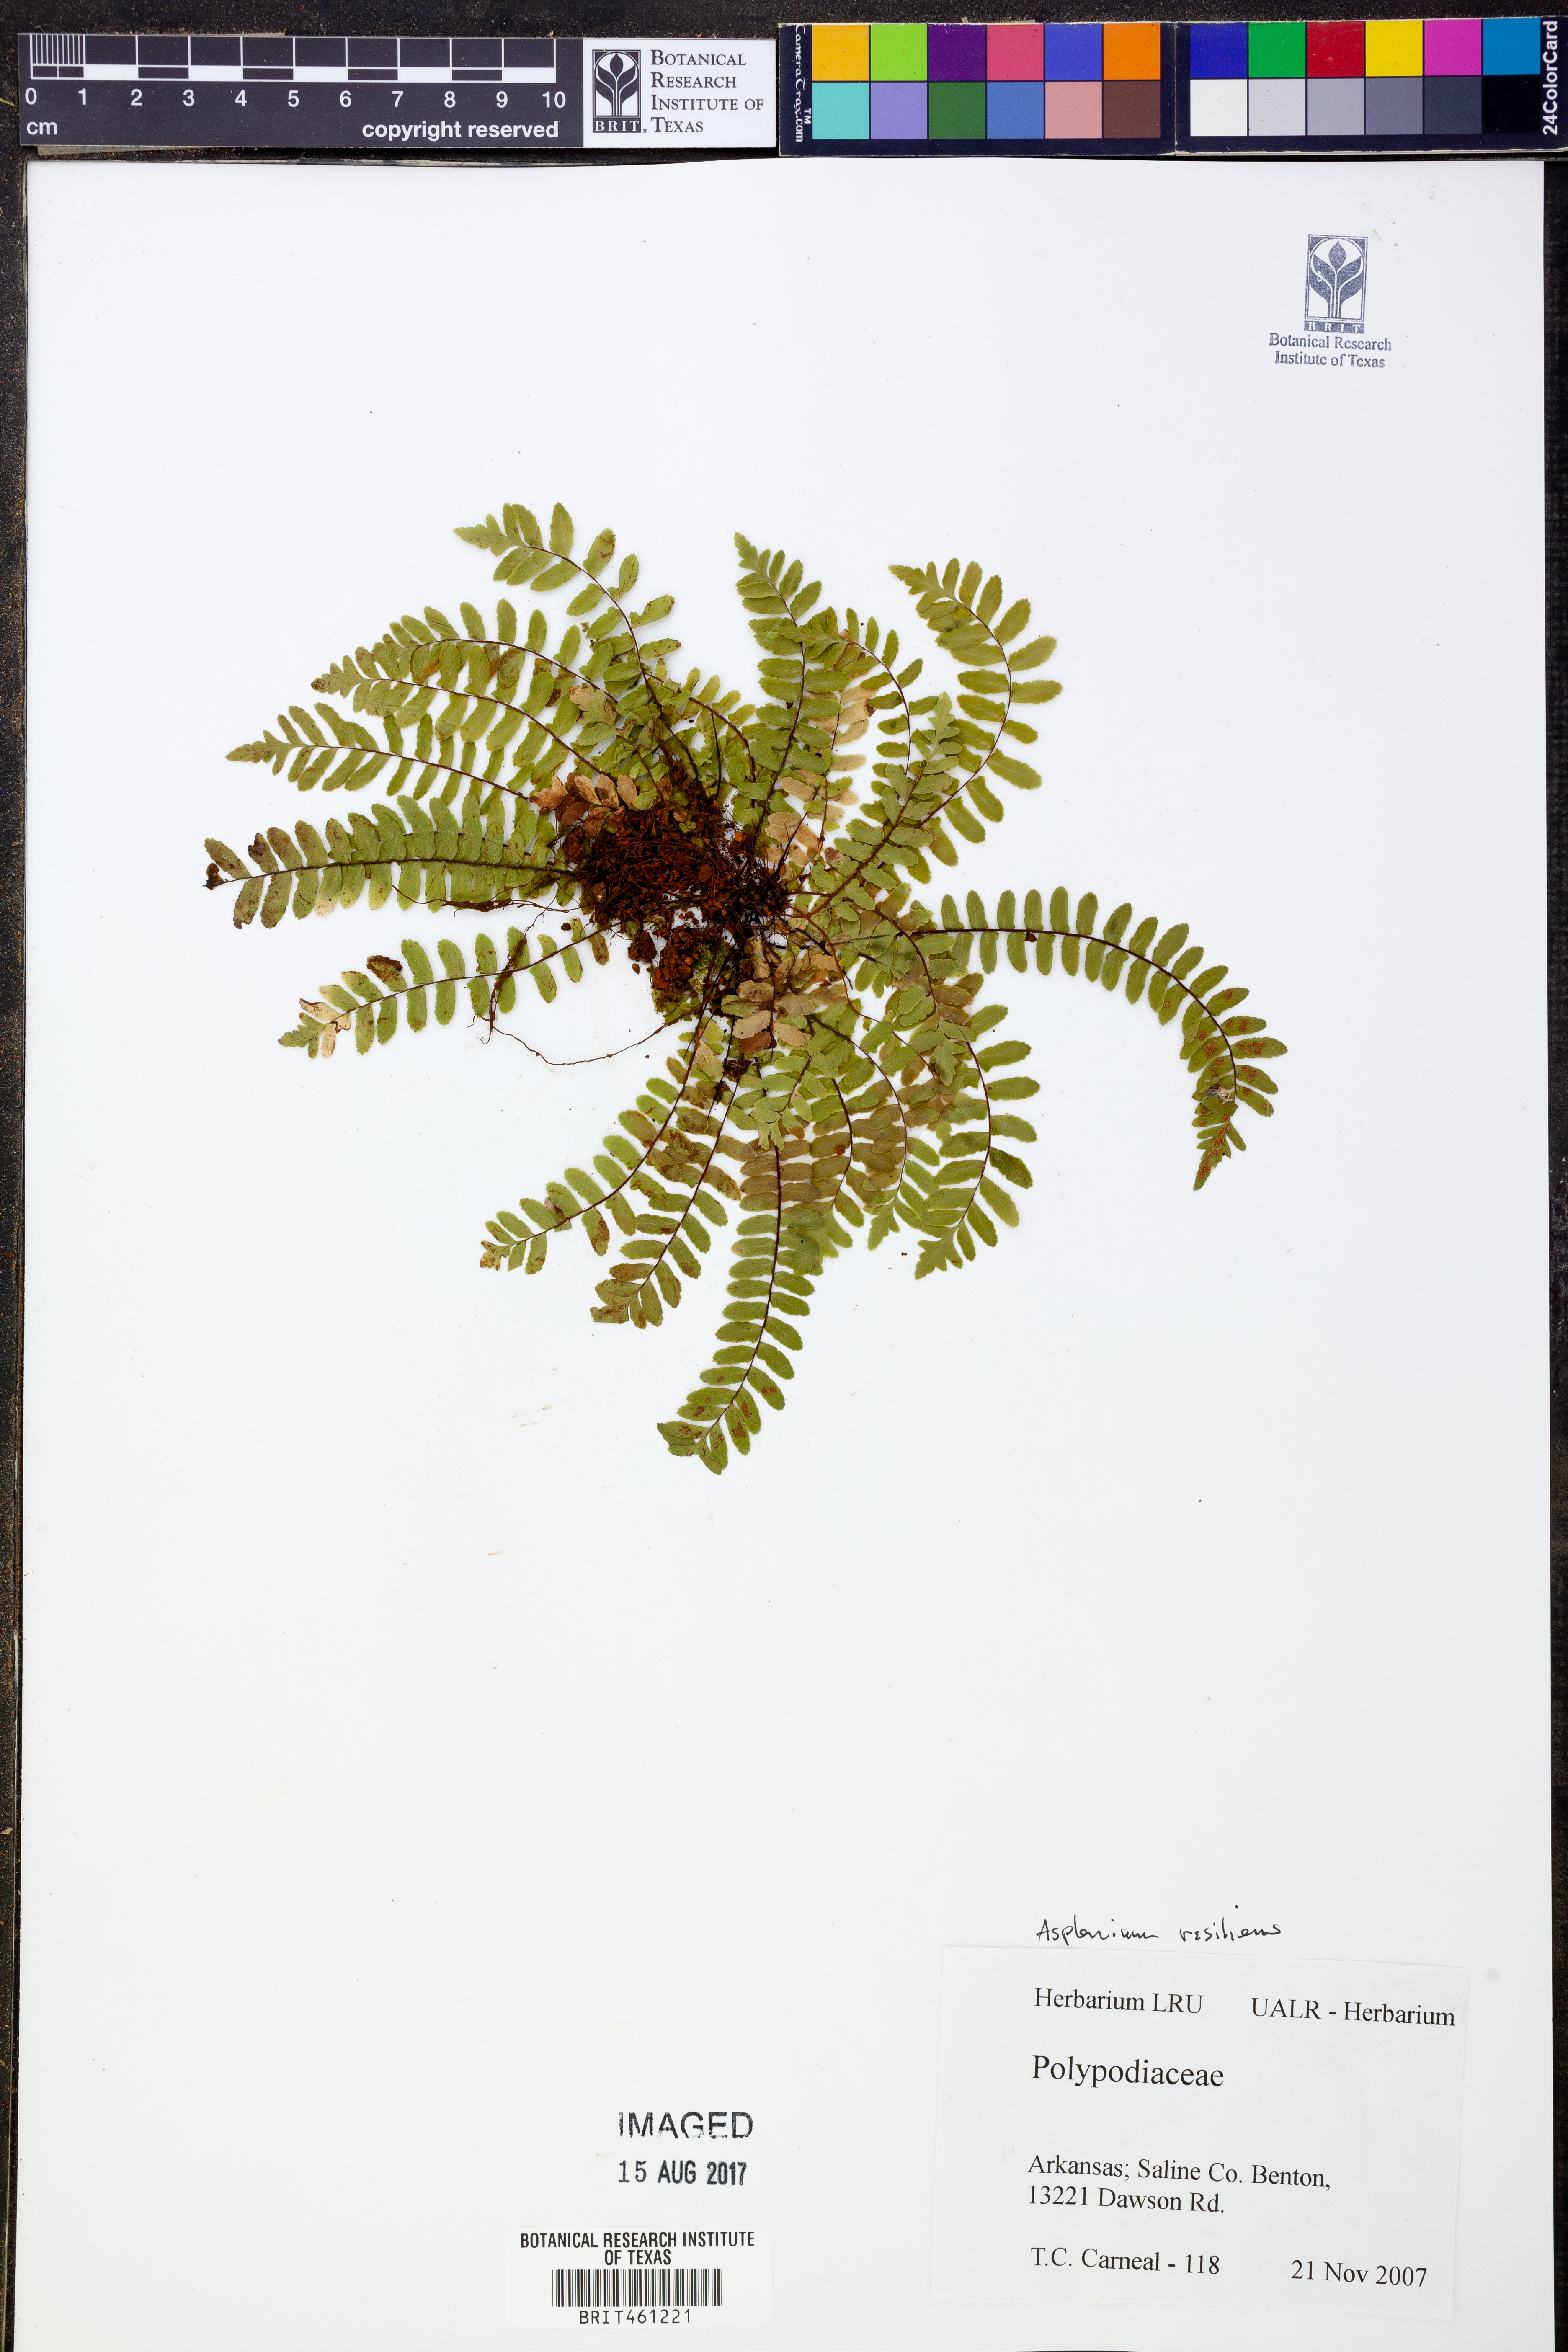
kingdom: Plantae
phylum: Tracheophyta
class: Polypodiopsida
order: Polypodiales
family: Aspleniaceae
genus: Asplenium
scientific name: Asplenium resiliens
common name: Blackstem spleenwort
